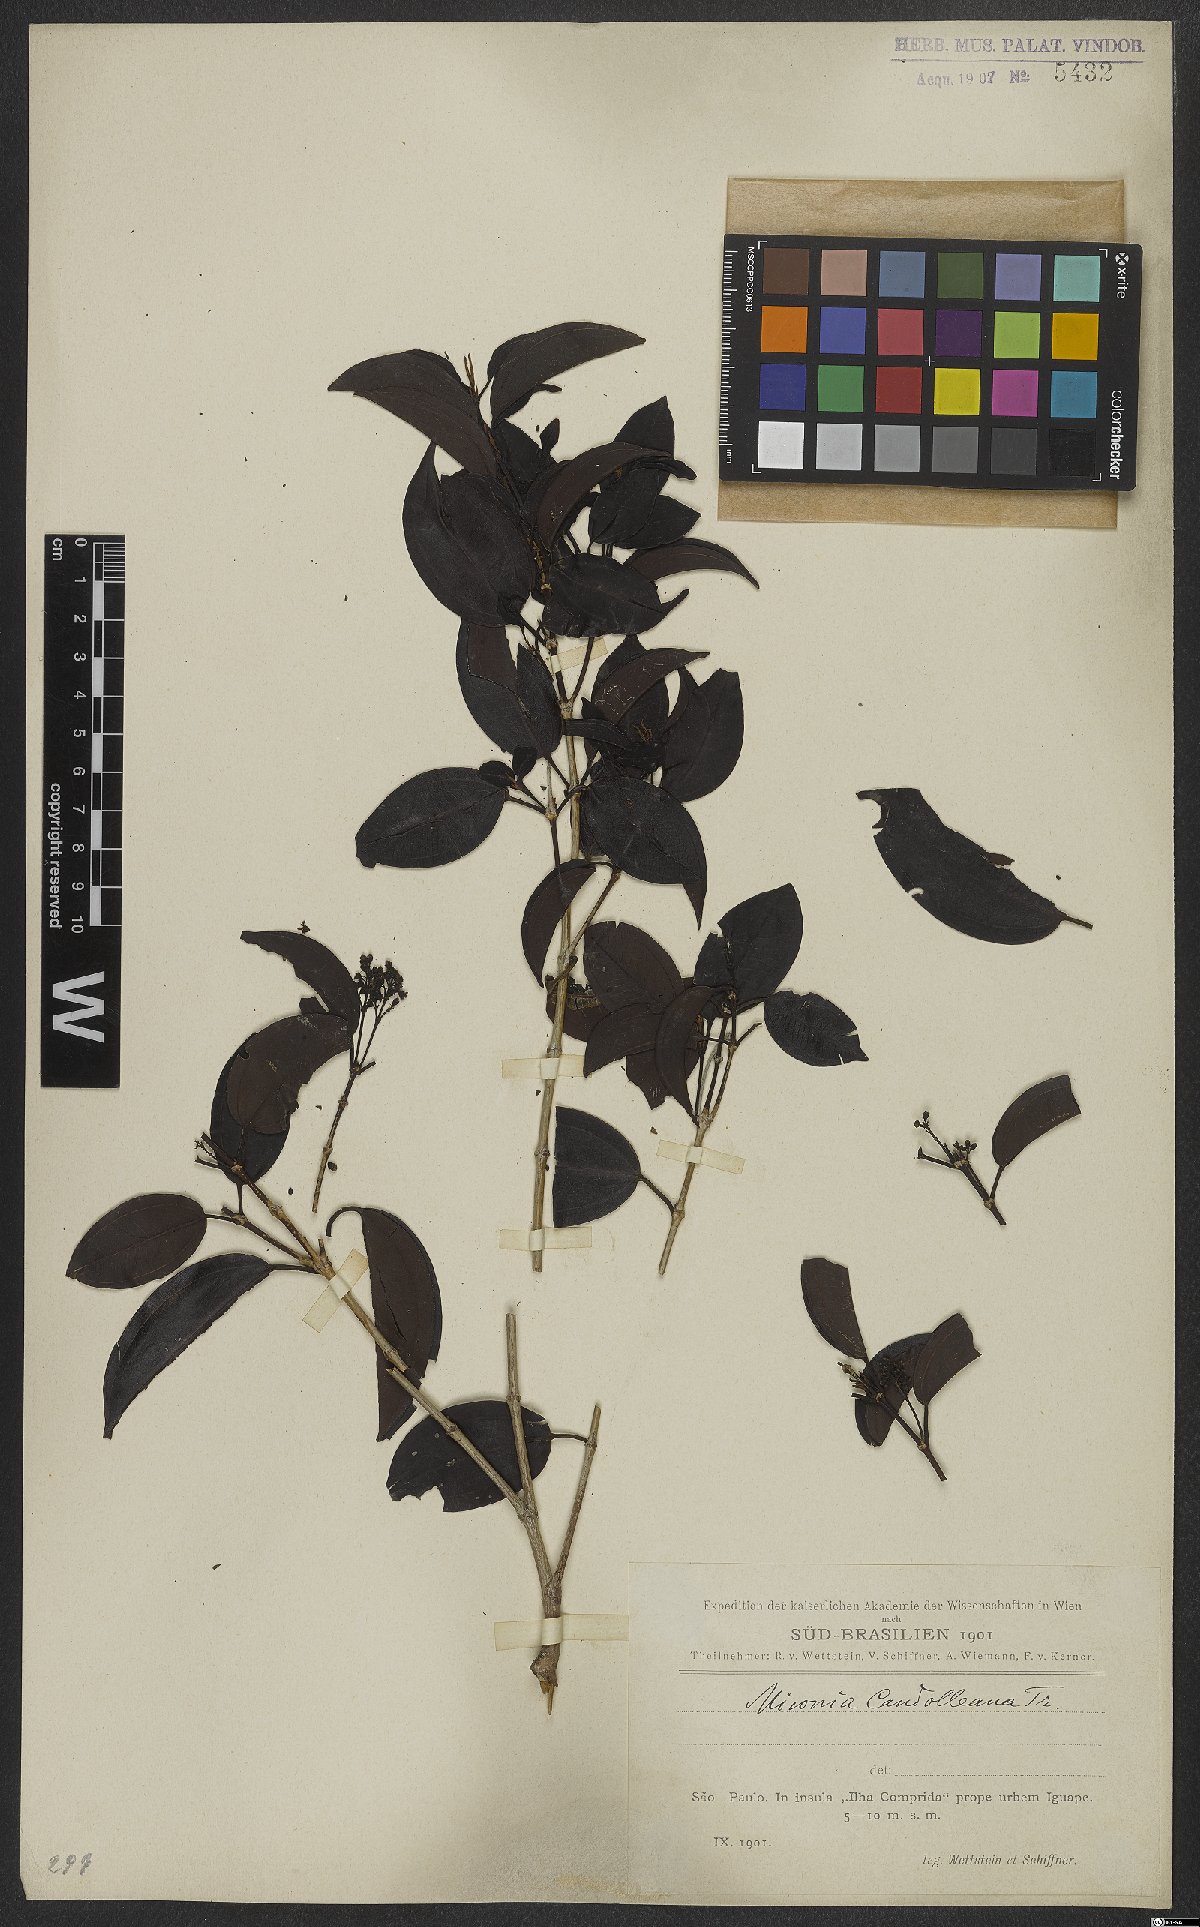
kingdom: Plantae
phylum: Tracheophyta
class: Magnoliopsida
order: Myrtales
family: Melastomataceae
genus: Miconia
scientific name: Miconia cinnamomifolia
